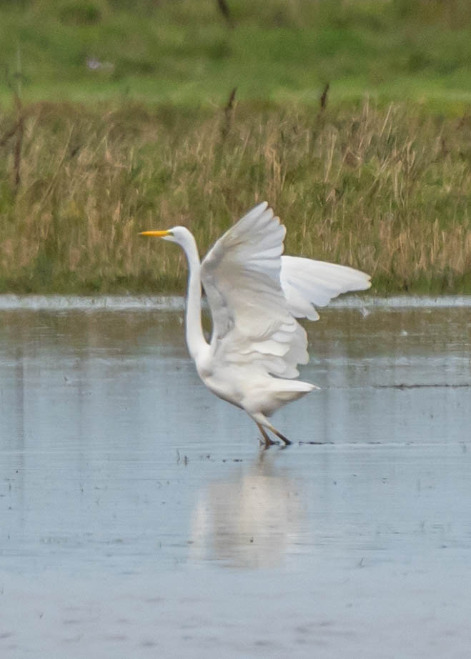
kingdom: Animalia
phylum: Chordata
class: Aves
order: Pelecaniformes
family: Ardeidae
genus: Ardea
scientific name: Ardea alba
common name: Sølvhejre
